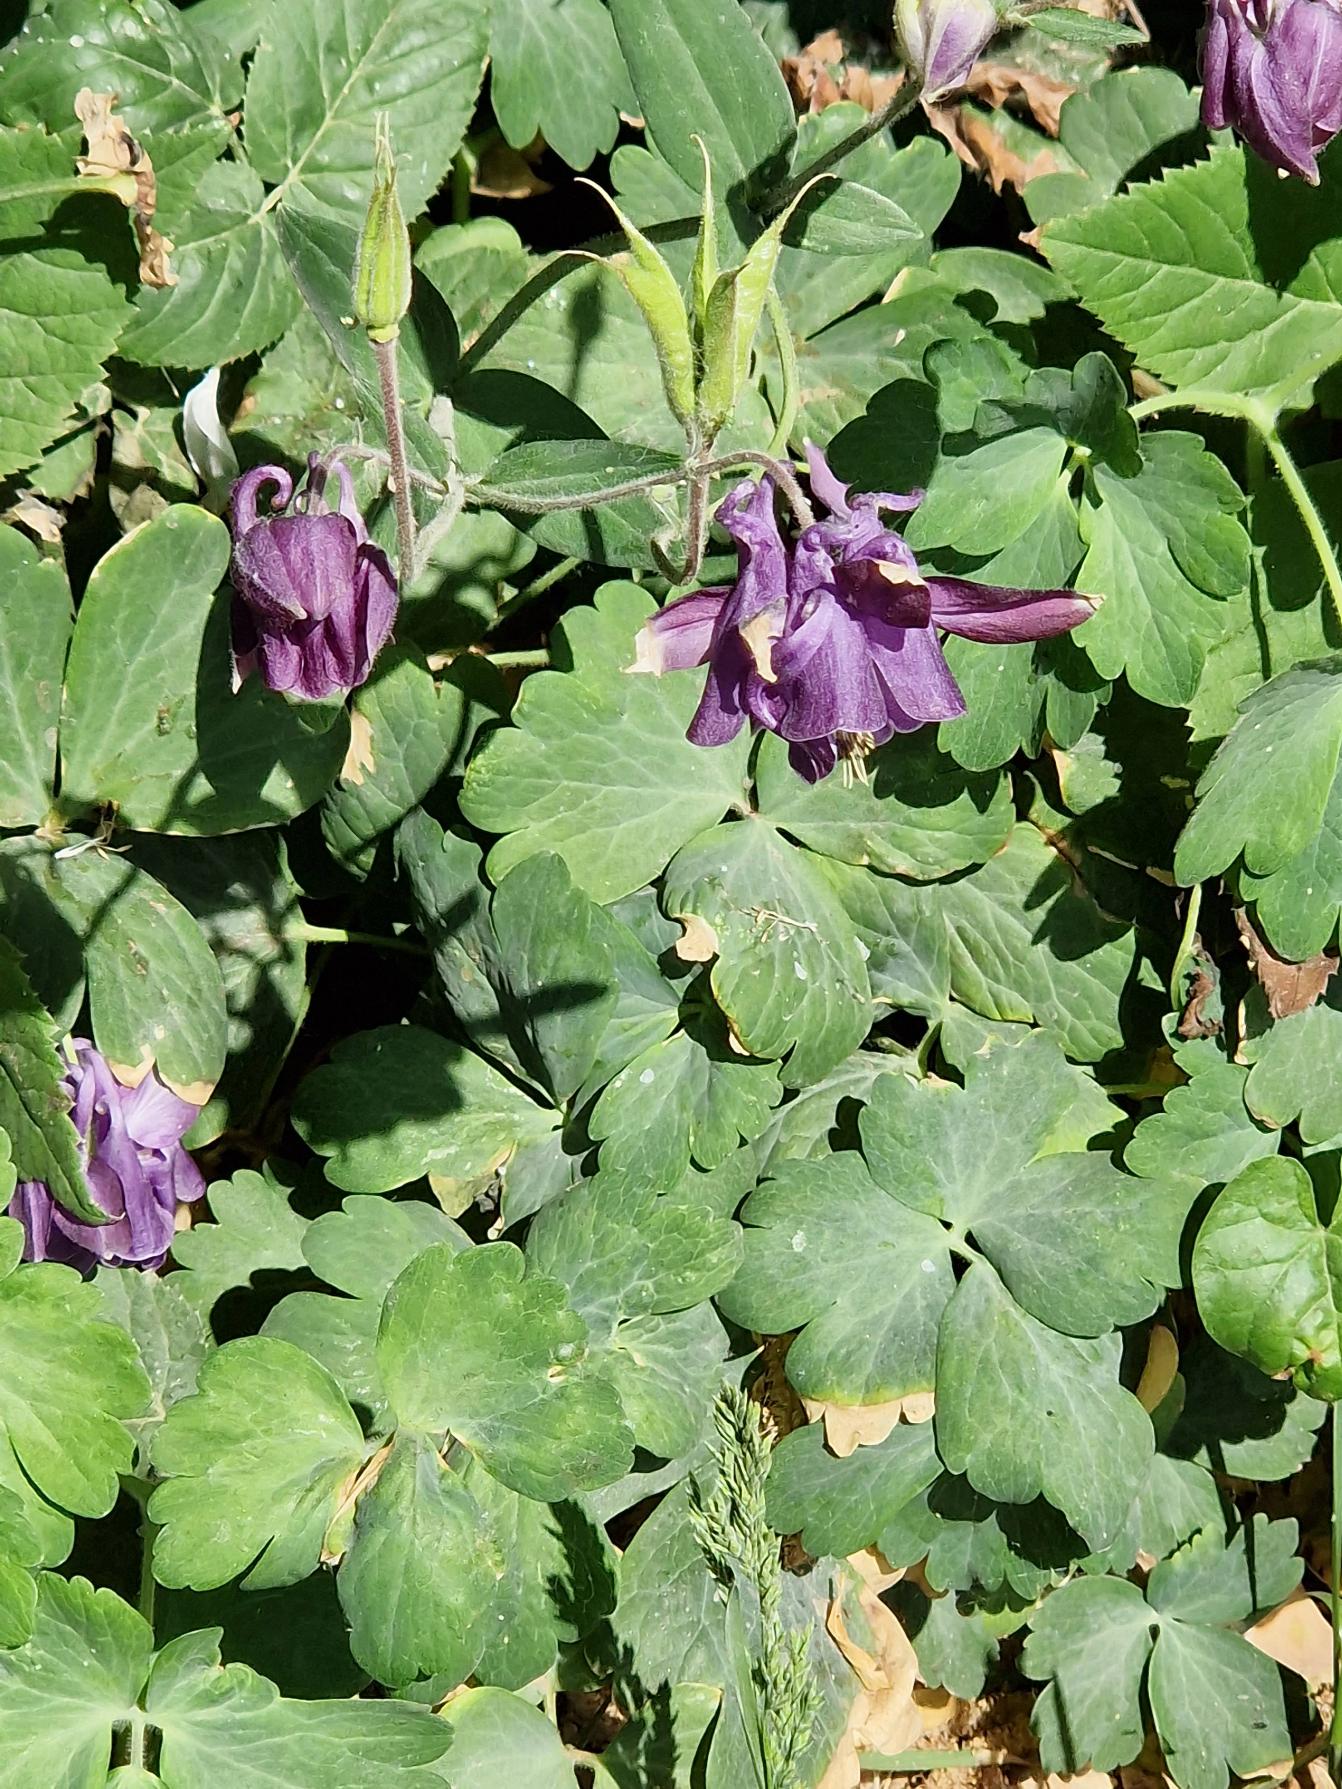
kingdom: Plantae
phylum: Tracheophyta
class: Magnoliopsida
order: Ranunculales
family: Ranunculaceae
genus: Aquilegia
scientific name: Aquilegia vulgaris
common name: Akeleje
